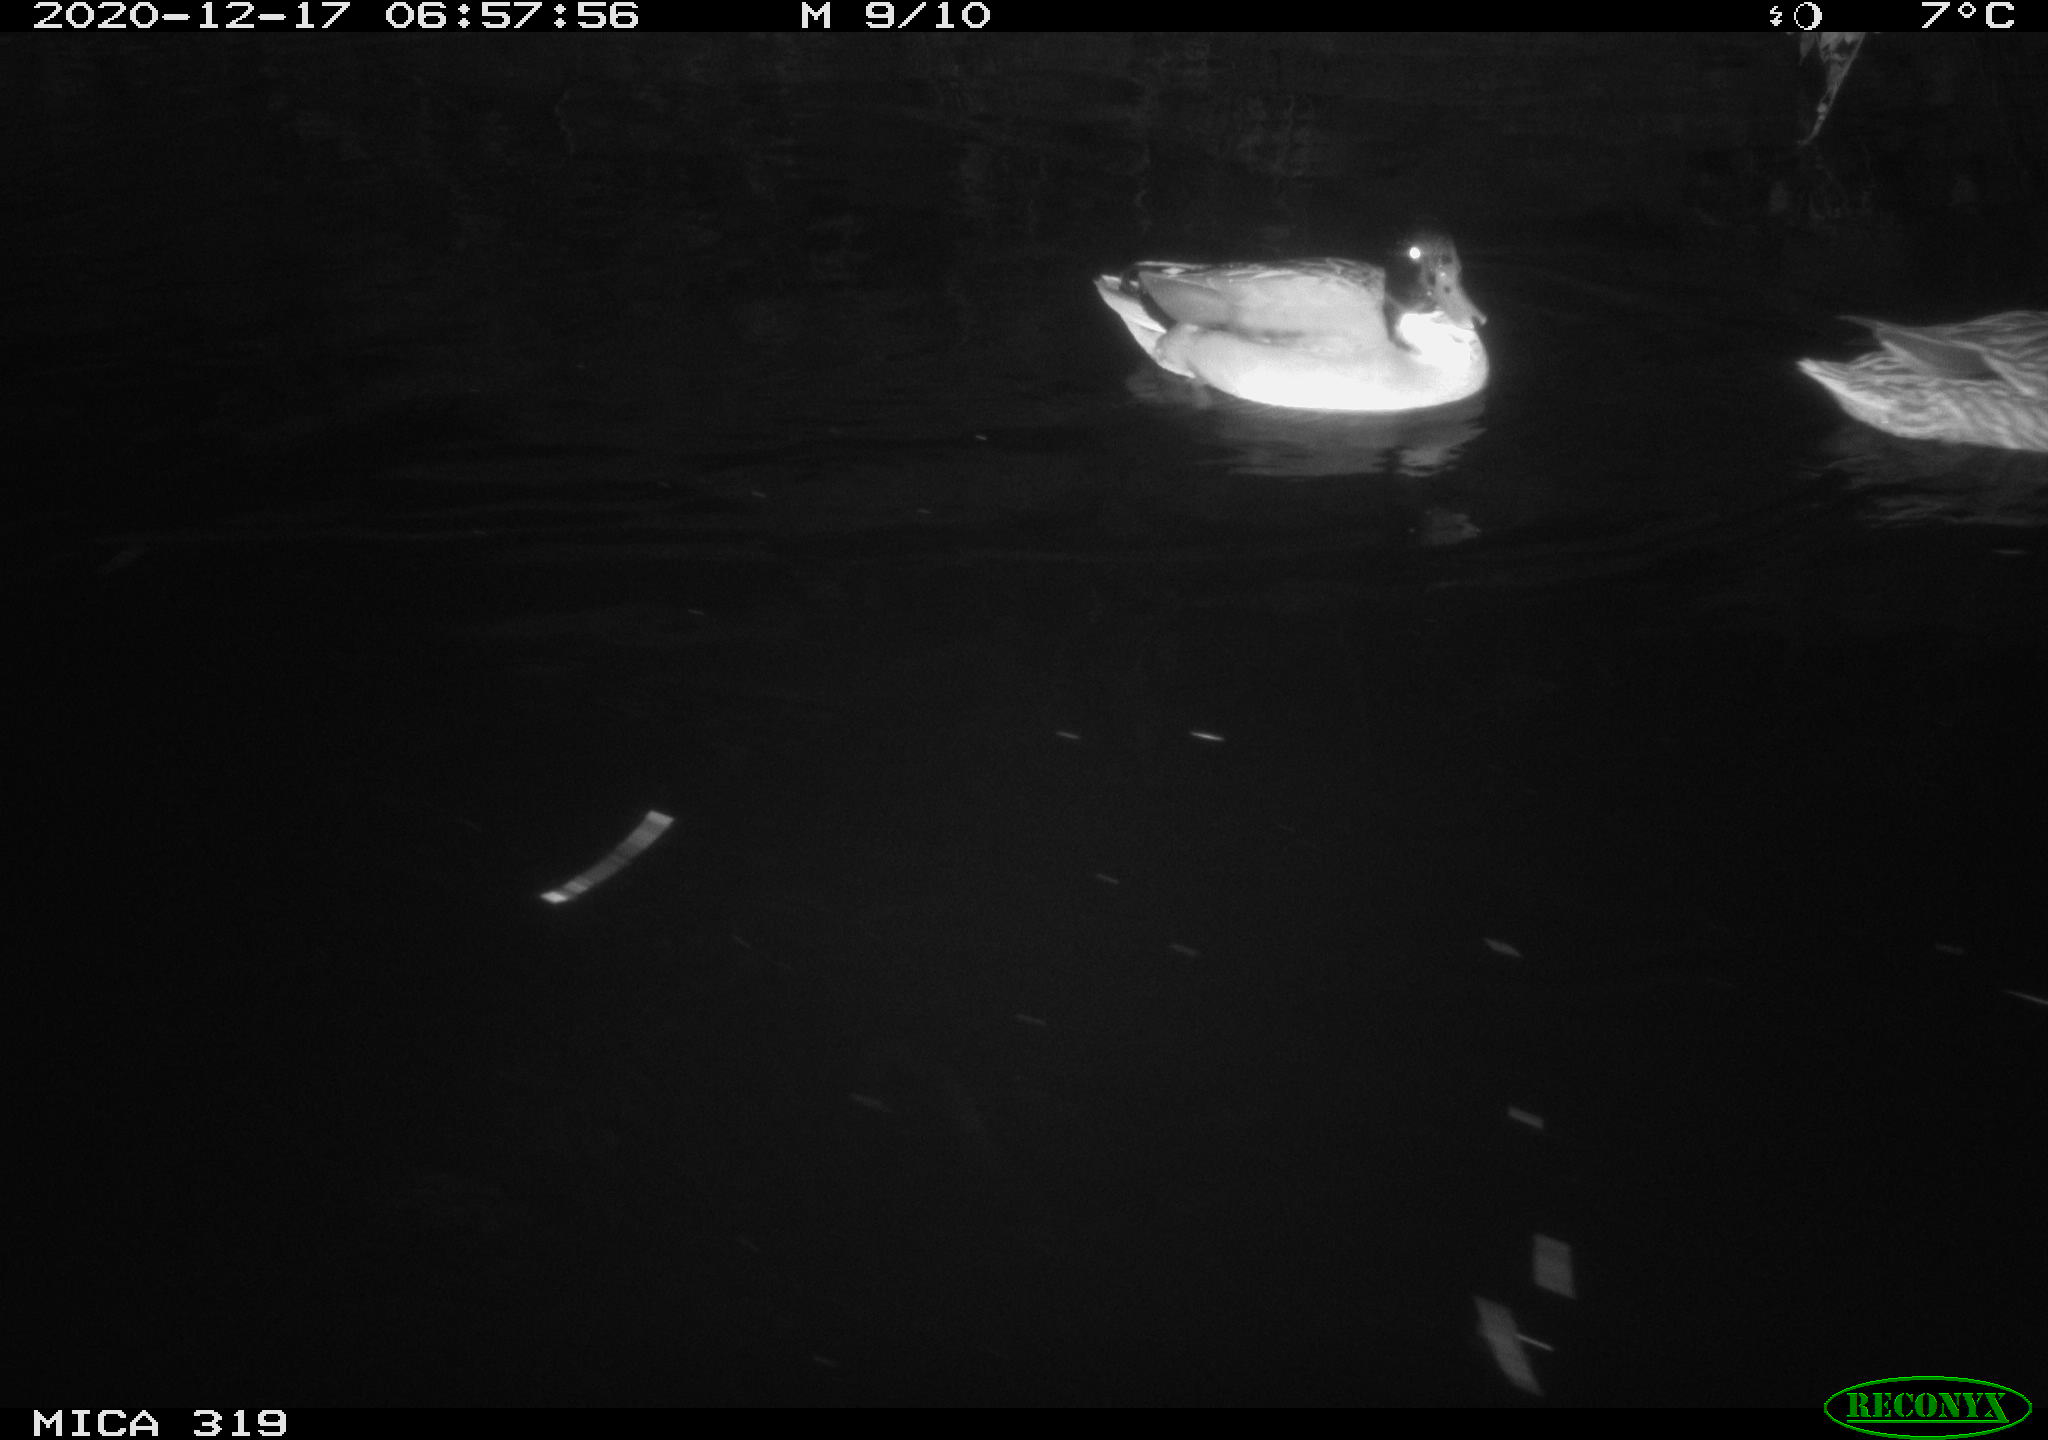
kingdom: Animalia
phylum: Chordata
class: Aves
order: Anseriformes
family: Anatidae
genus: Anas
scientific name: Anas platyrhynchos
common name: Mallard
